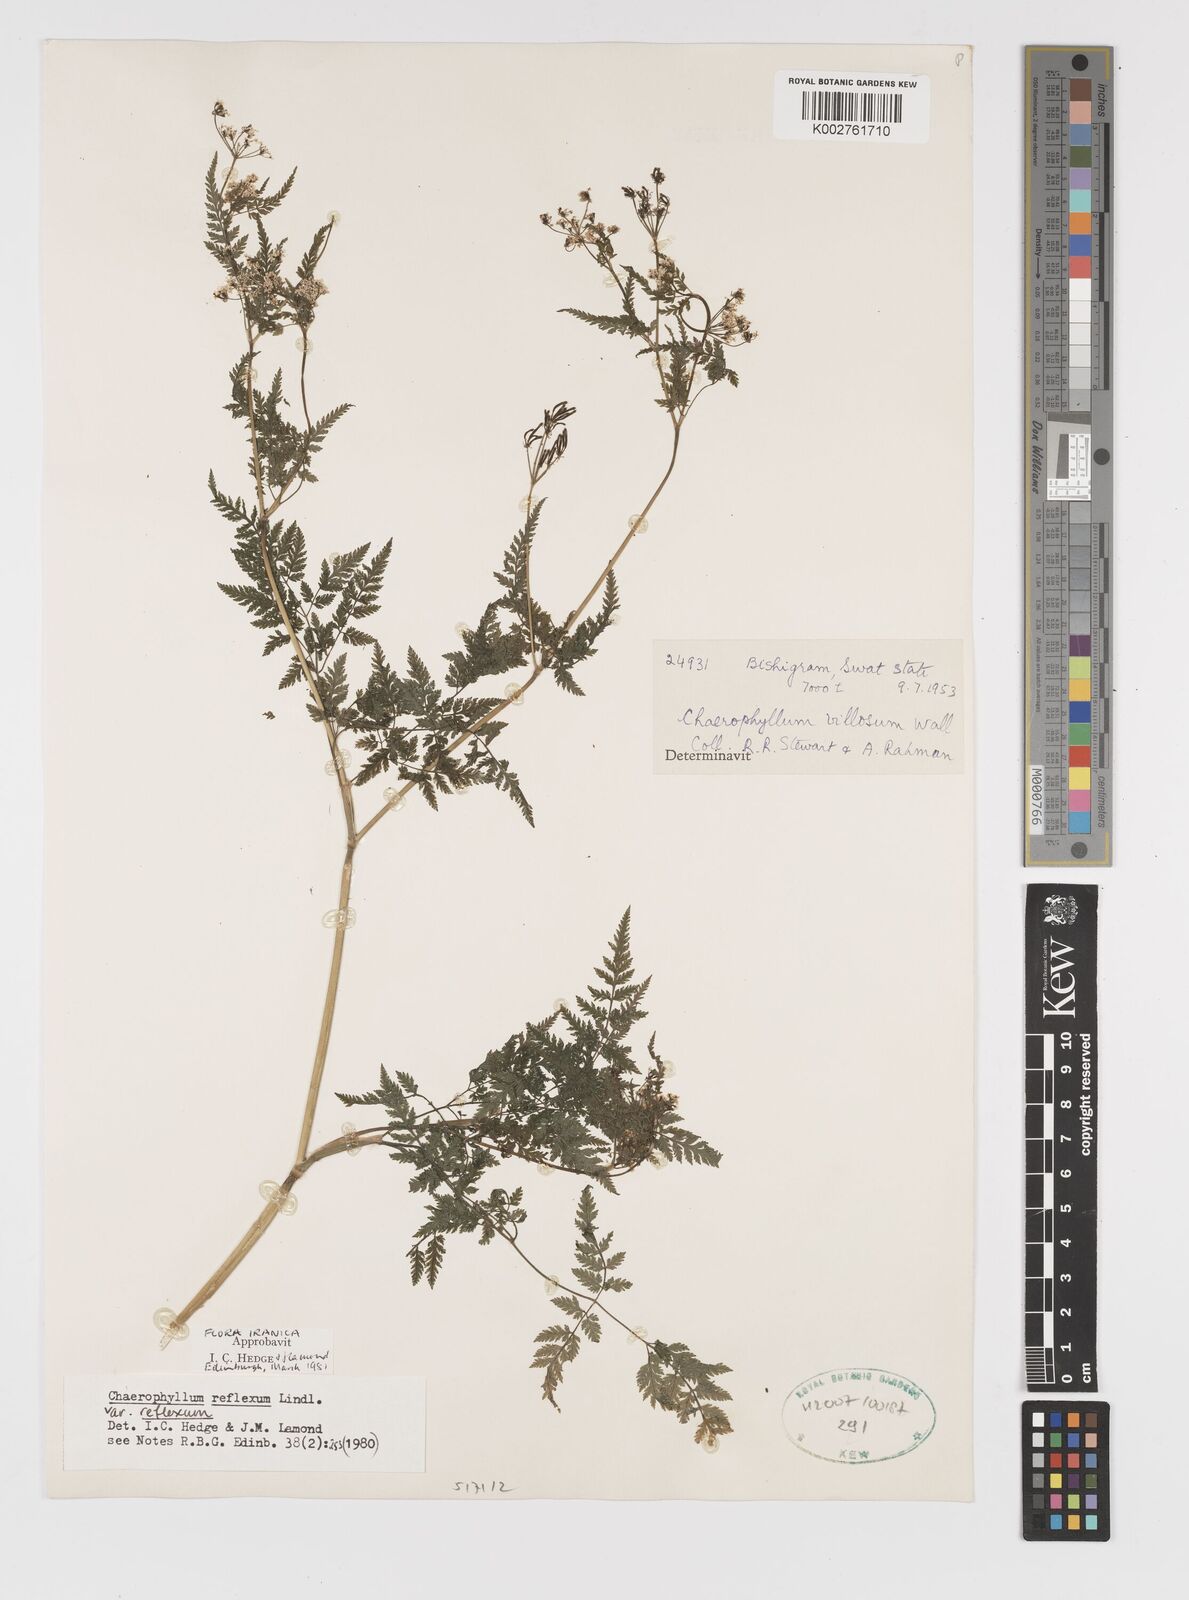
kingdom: Plantae
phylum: Tracheophyta
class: Magnoliopsida
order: Apiales
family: Apiaceae
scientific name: Apiaceae
